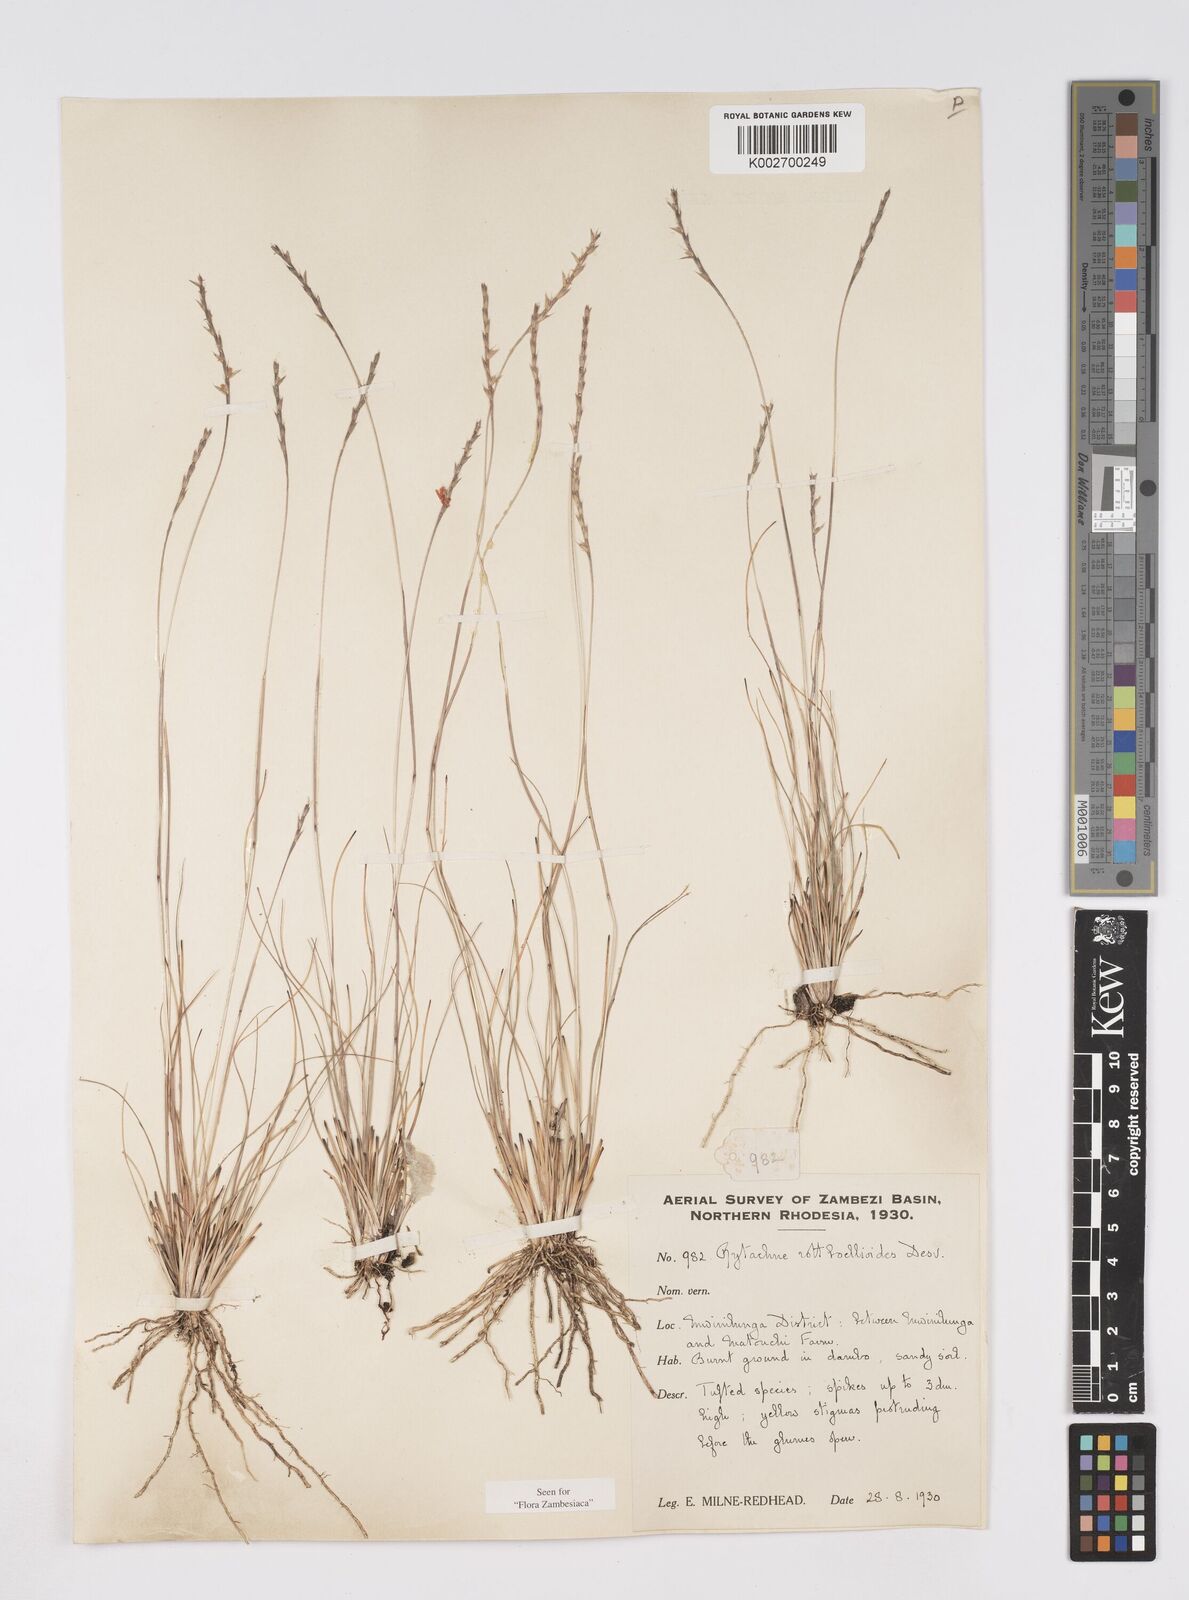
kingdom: Plantae
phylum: Tracheophyta
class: Liliopsida
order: Poales
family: Poaceae
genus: Rhytachne
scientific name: Rhytachne rottboellioides
